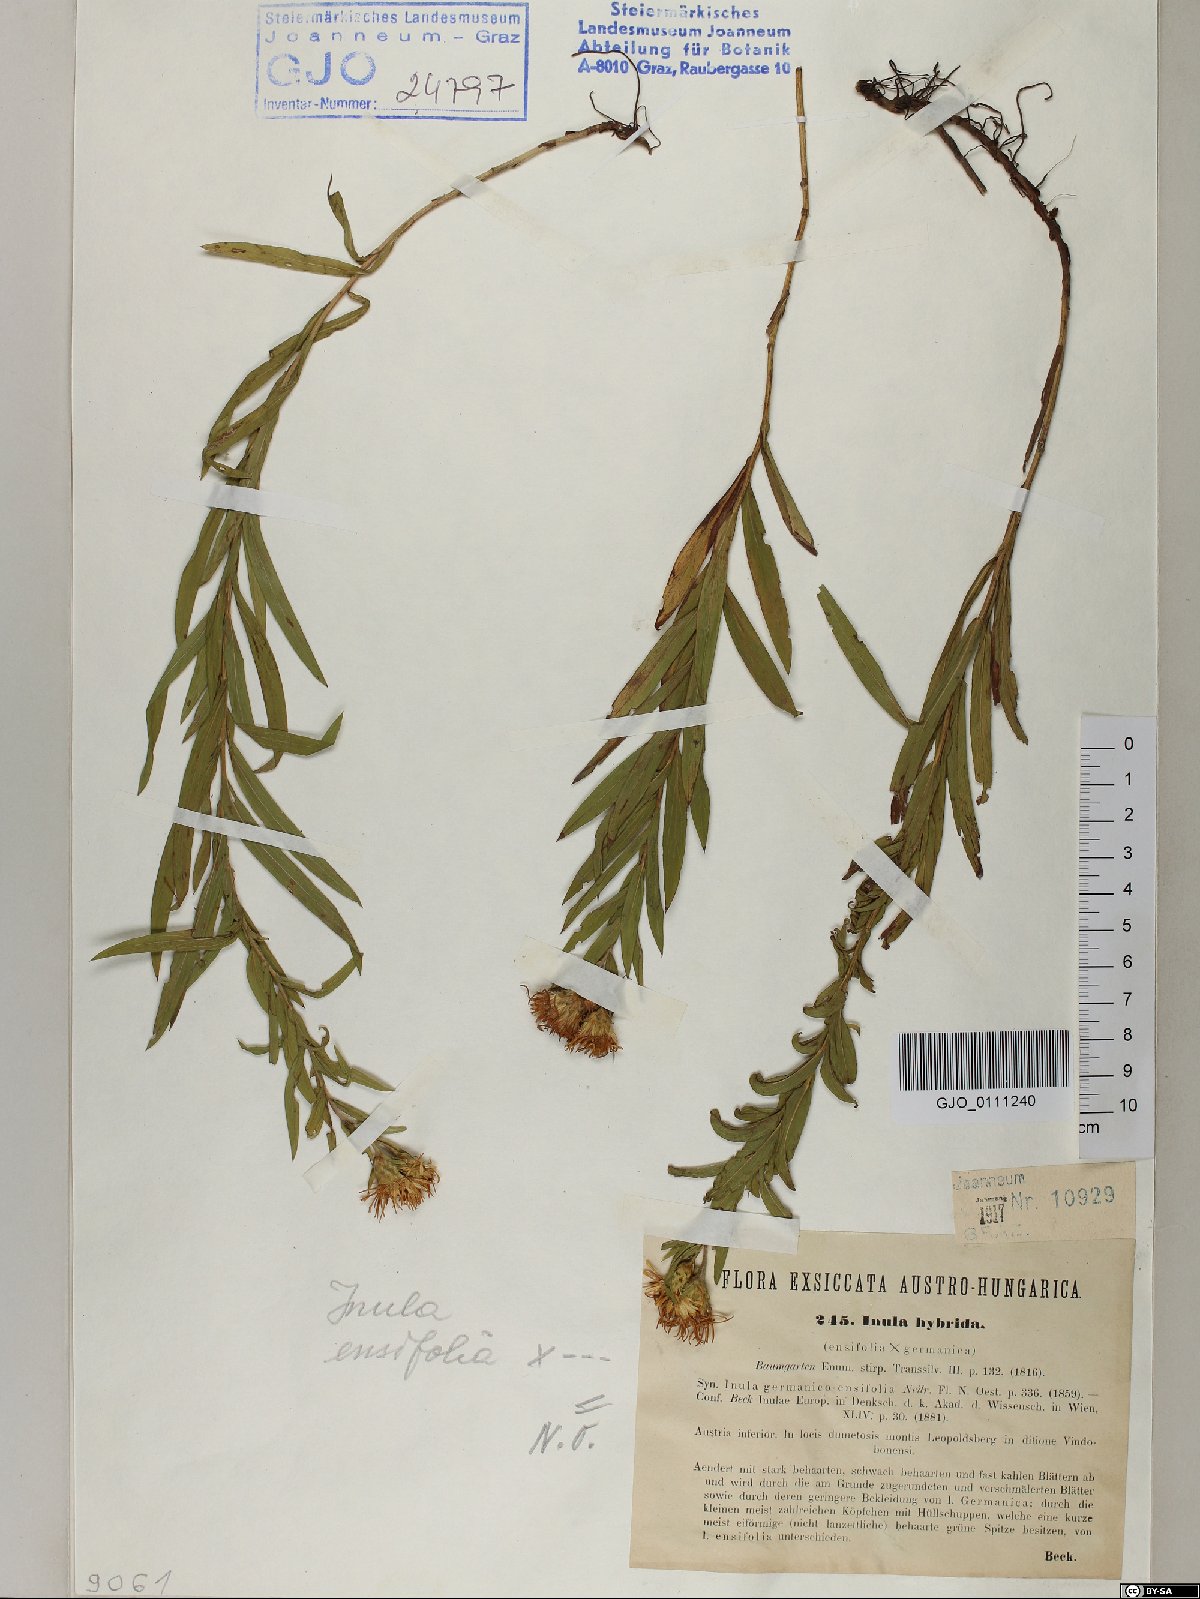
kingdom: Plantae
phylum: Tracheophyta
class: Magnoliopsida
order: Asterales
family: Asteraceae
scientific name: Asteraceae
